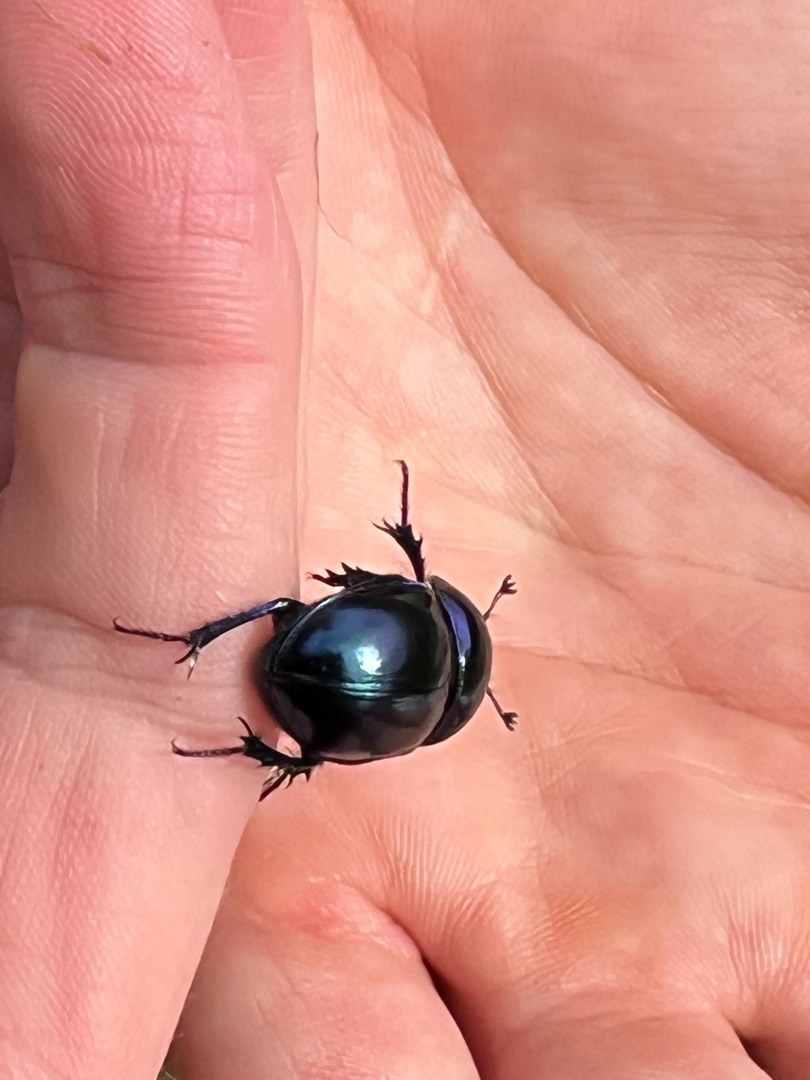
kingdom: Animalia
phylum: Arthropoda
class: Insecta
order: Coleoptera
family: Geotrupidae
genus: Trypocopris
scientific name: Trypocopris vernalis
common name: Glat skarnbasse
